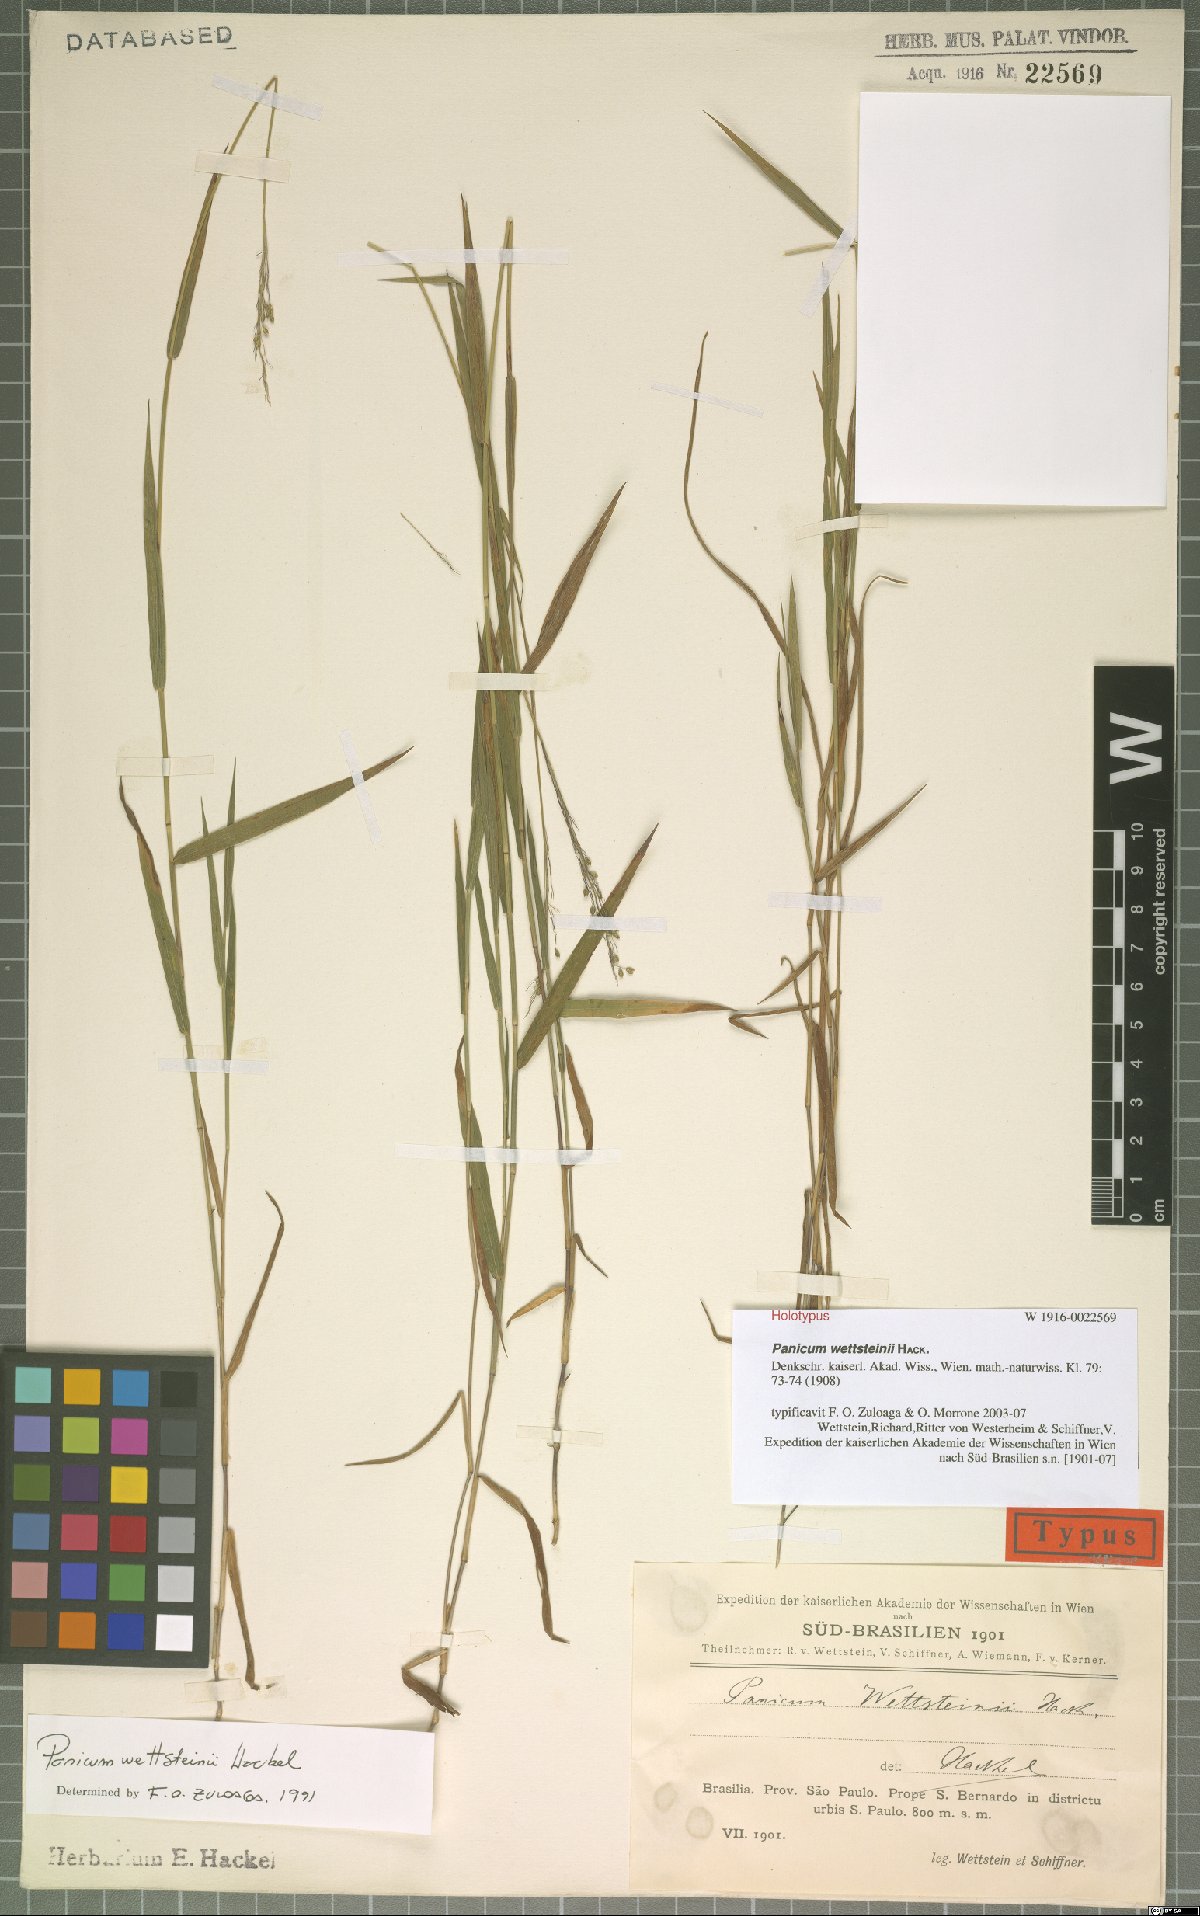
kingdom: Plantae
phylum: Tracheophyta
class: Liliopsida
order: Poales
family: Poaceae
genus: Trichanthecium
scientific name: Trichanthecium wettsteinii
